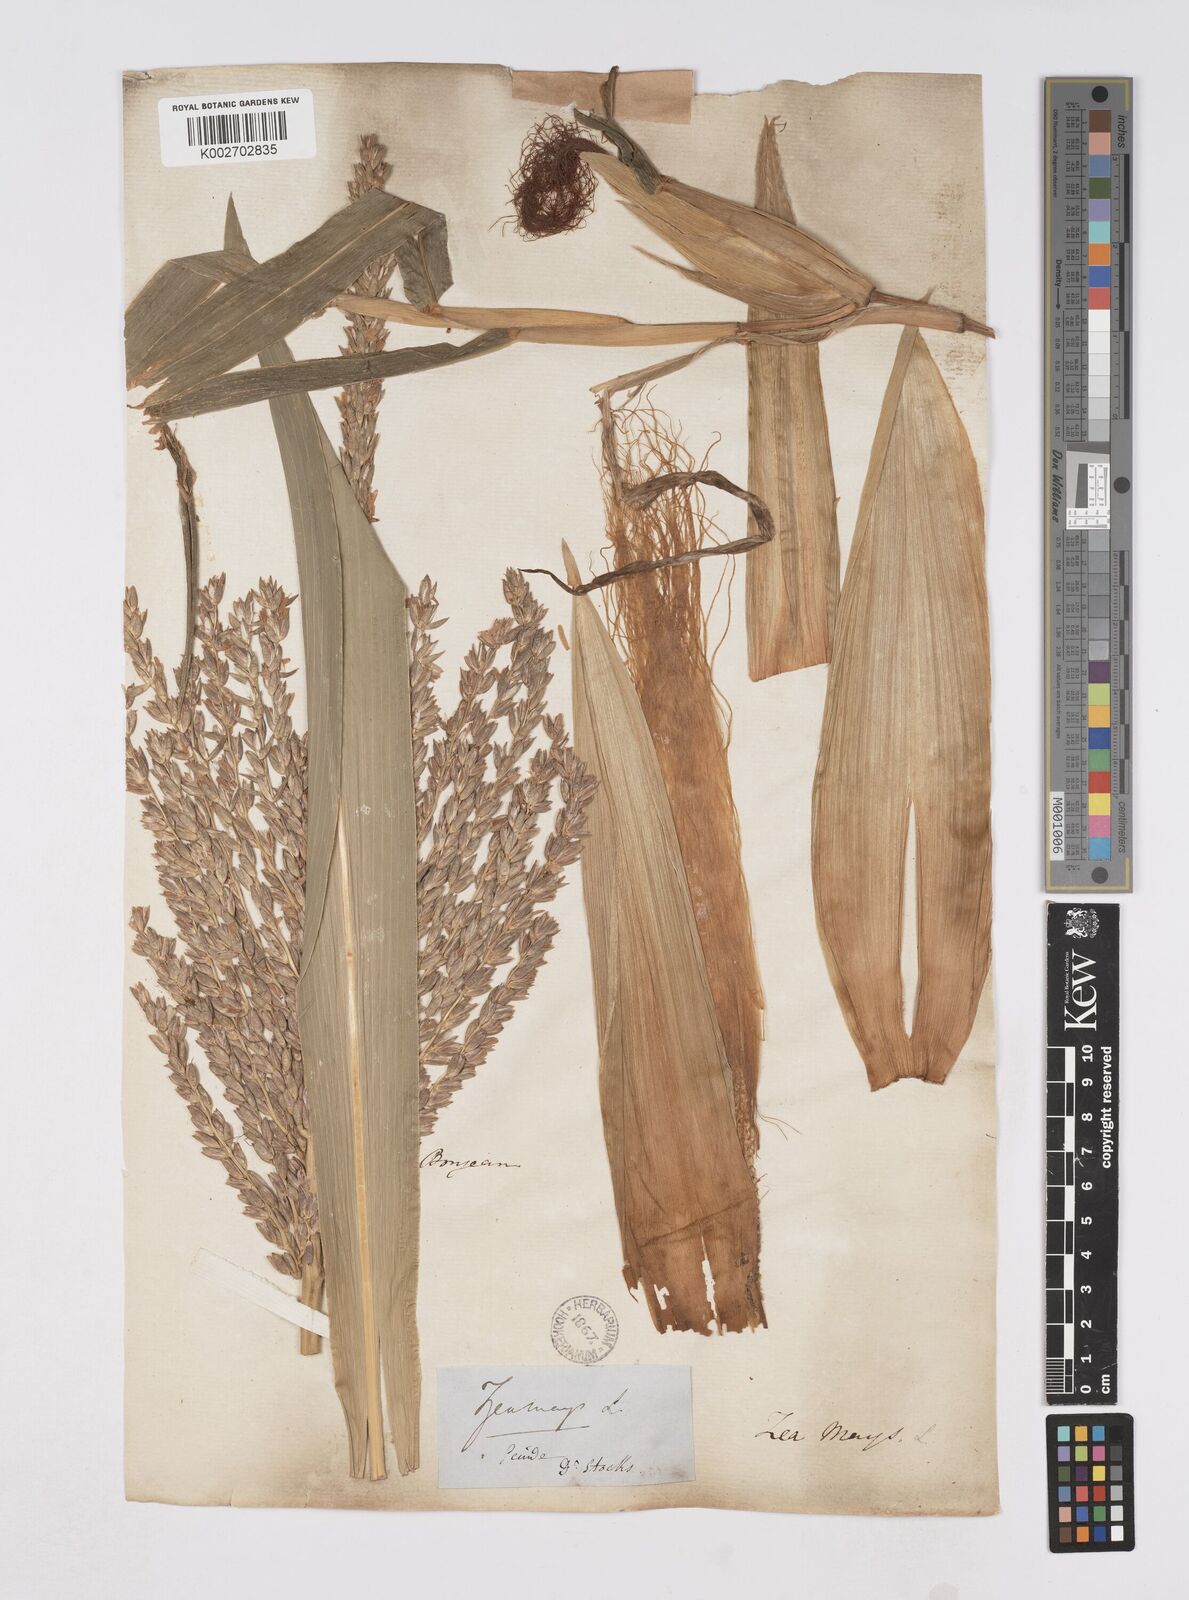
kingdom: Plantae
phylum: Tracheophyta
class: Liliopsida
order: Poales
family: Poaceae
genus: Zea
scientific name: Zea mays
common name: Maize
